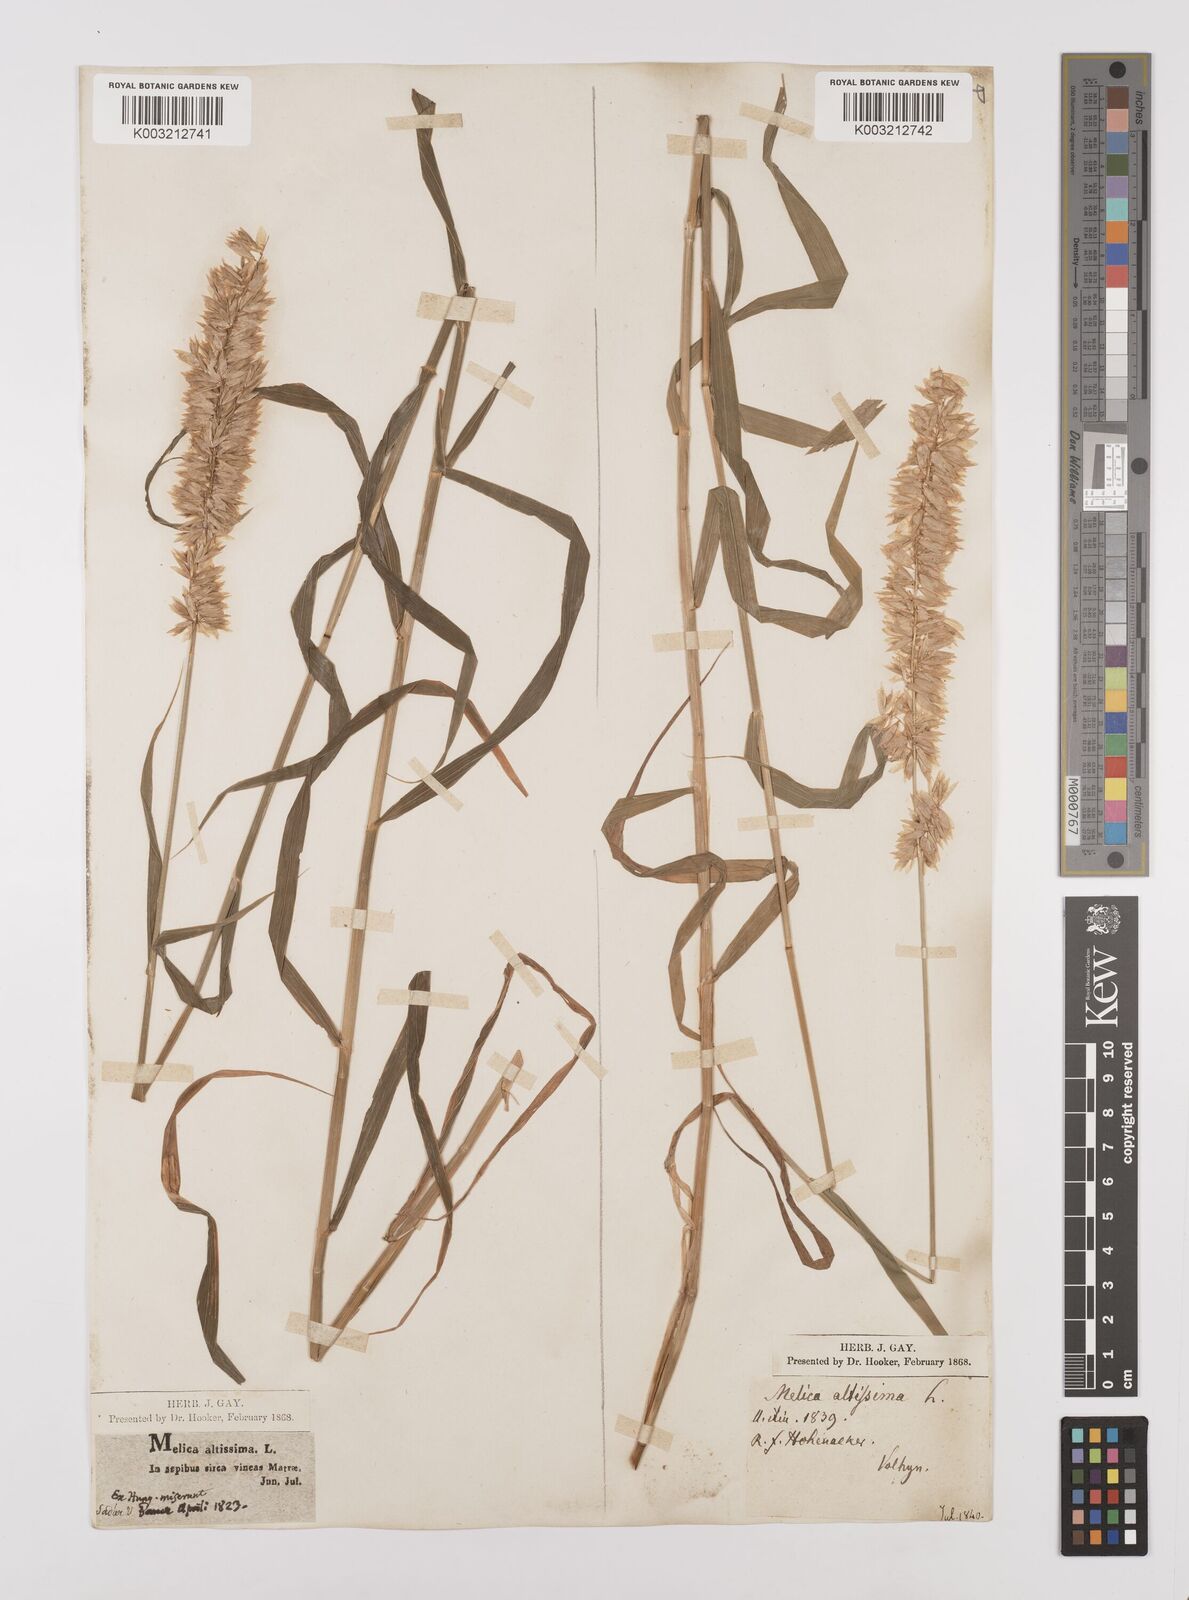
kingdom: Plantae
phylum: Tracheophyta
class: Liliopsida
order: Poales
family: Poaceae
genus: Melica
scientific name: Melica altissima
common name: Siberian melicgrass
